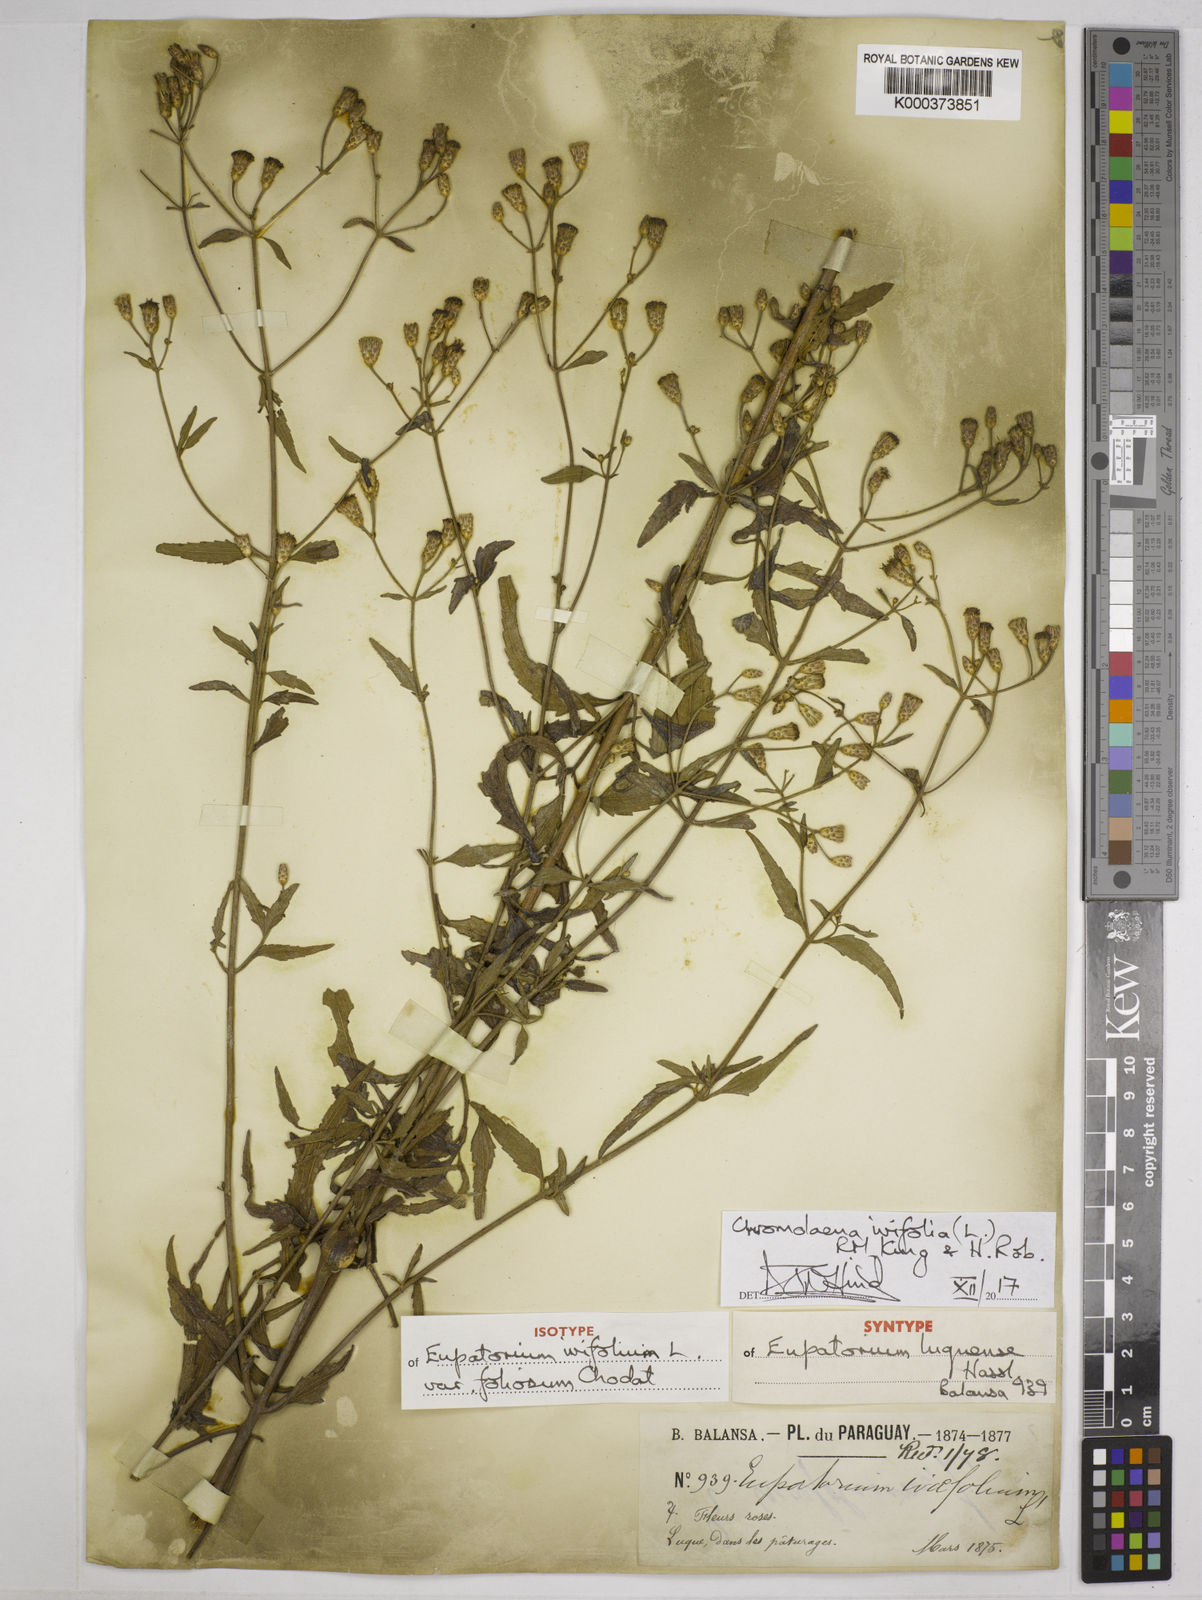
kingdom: Plantae
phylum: Tracheophyta
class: Magnoliopsida
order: Asterales
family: Asteraceae
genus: Chromolaena
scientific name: Chromolaena ivifolia
